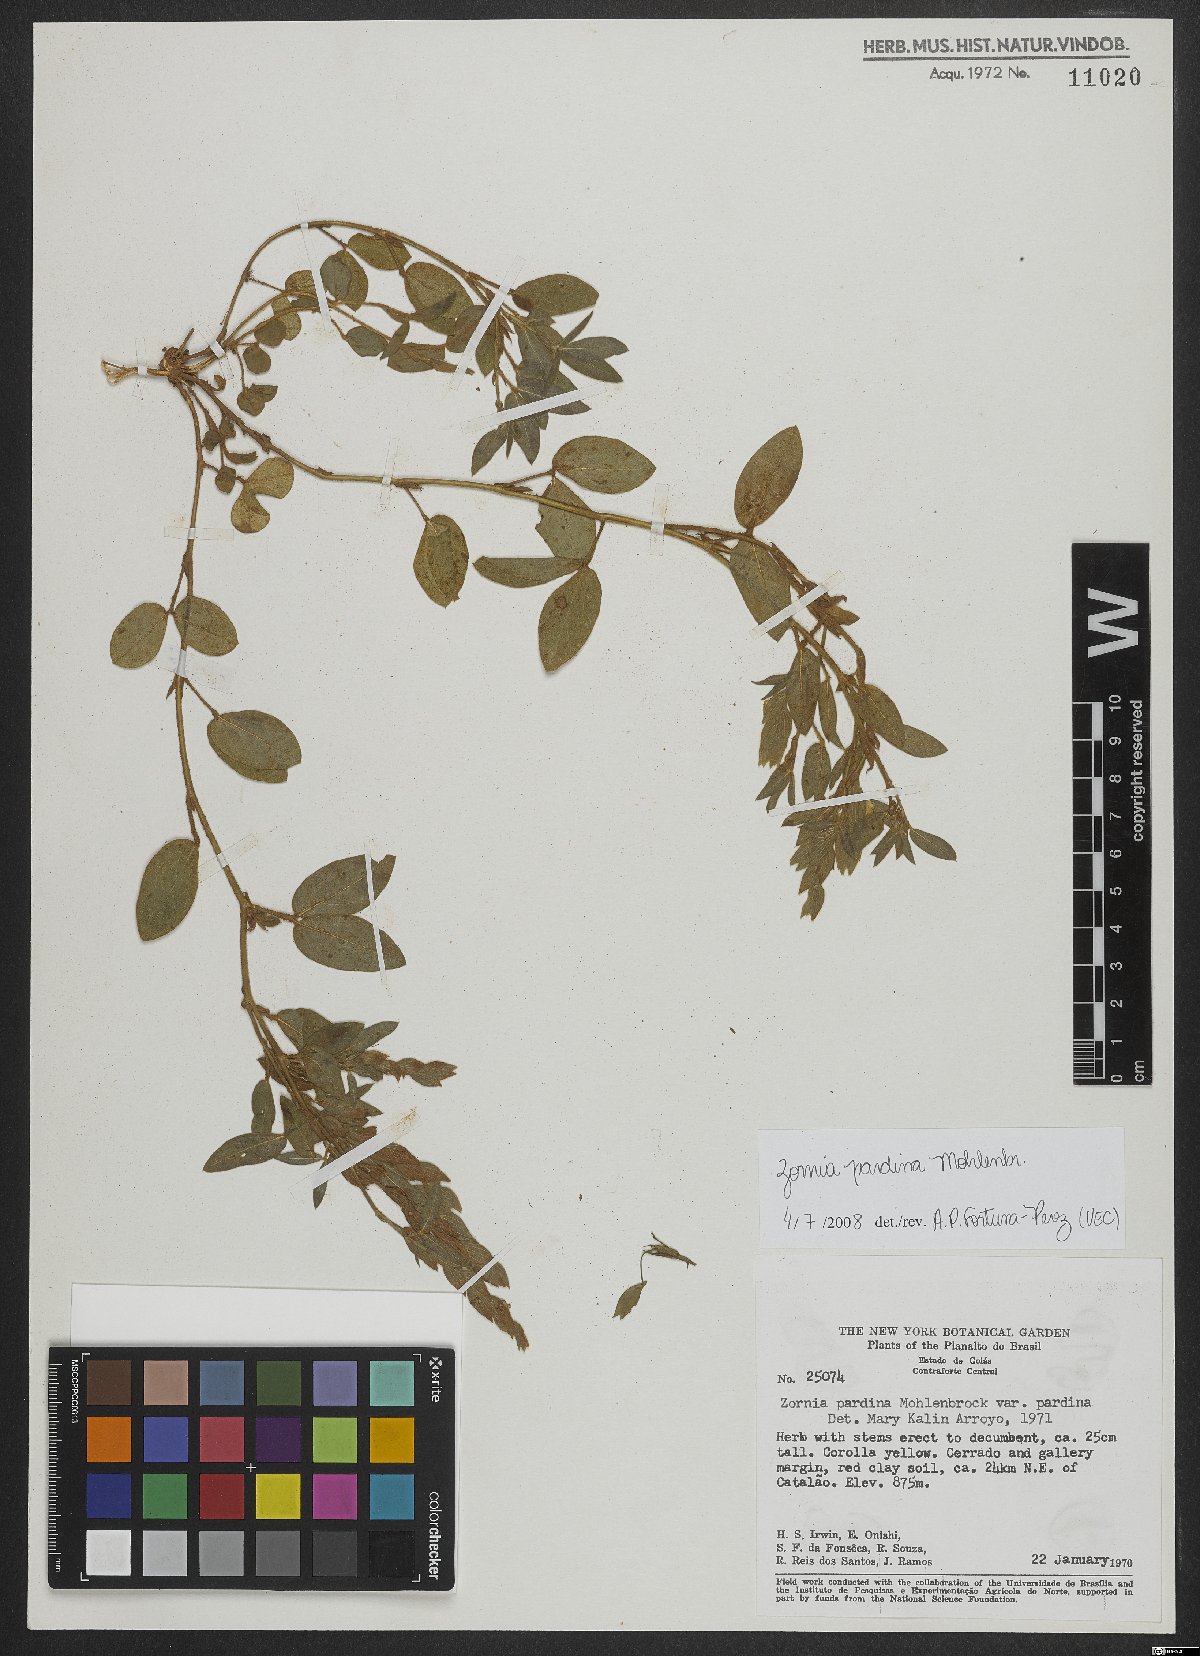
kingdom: Plantae
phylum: Tracheophyta
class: Magnoliopsida
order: Fabales
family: Fabaceae
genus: Zornia
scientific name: Zornia pardina
